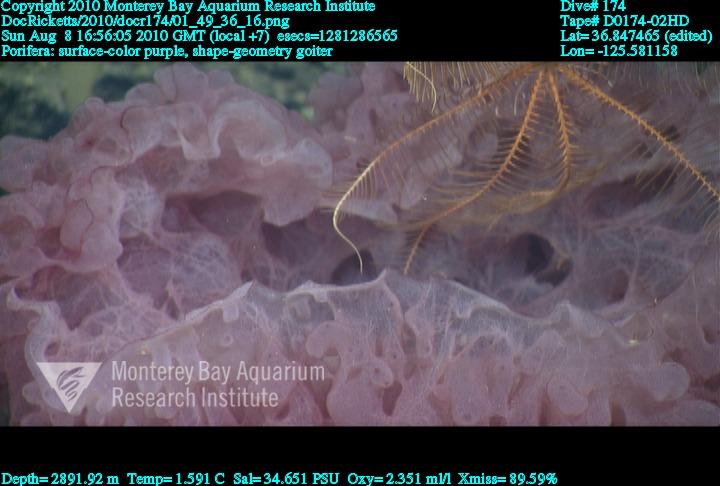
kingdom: Animalia
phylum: Porifera
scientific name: Porifera
